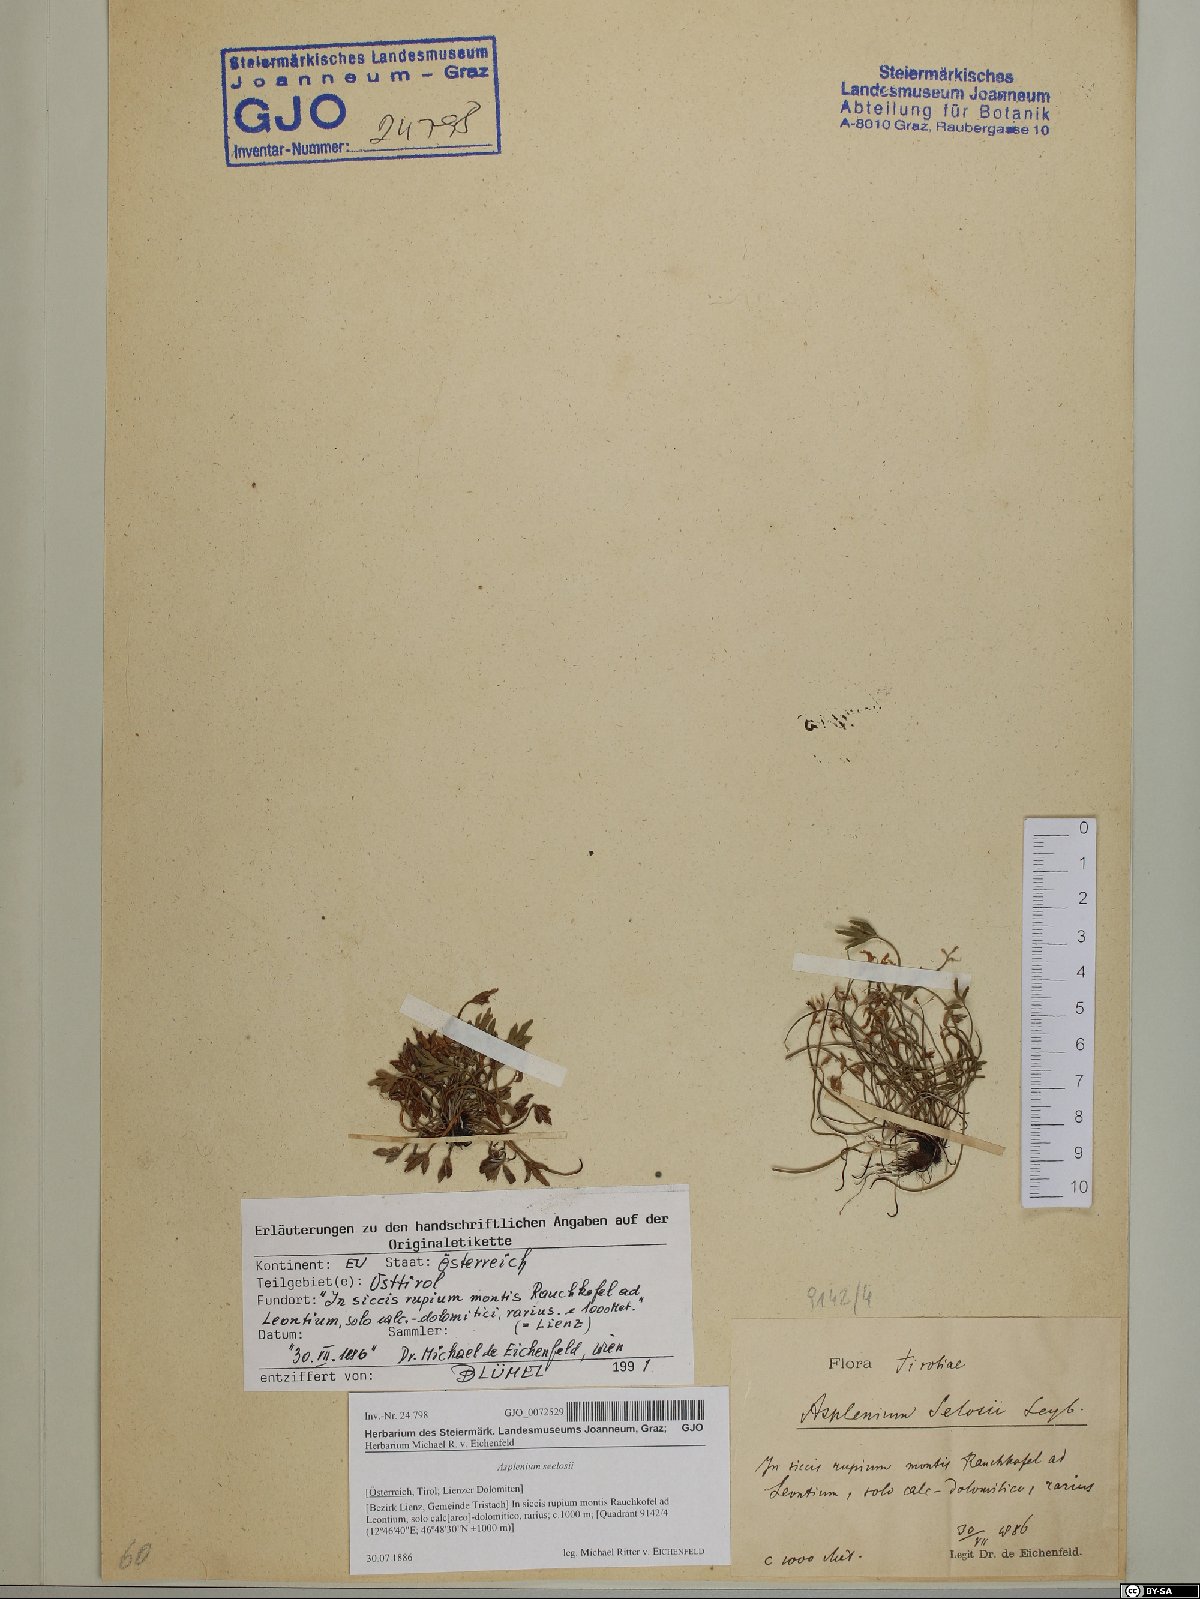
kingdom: Plantae
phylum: Tracheophyta
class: Polypodiopsida
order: Polypodiales
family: Aspleniaceae
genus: Asplenium
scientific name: Asplenium seelosii
